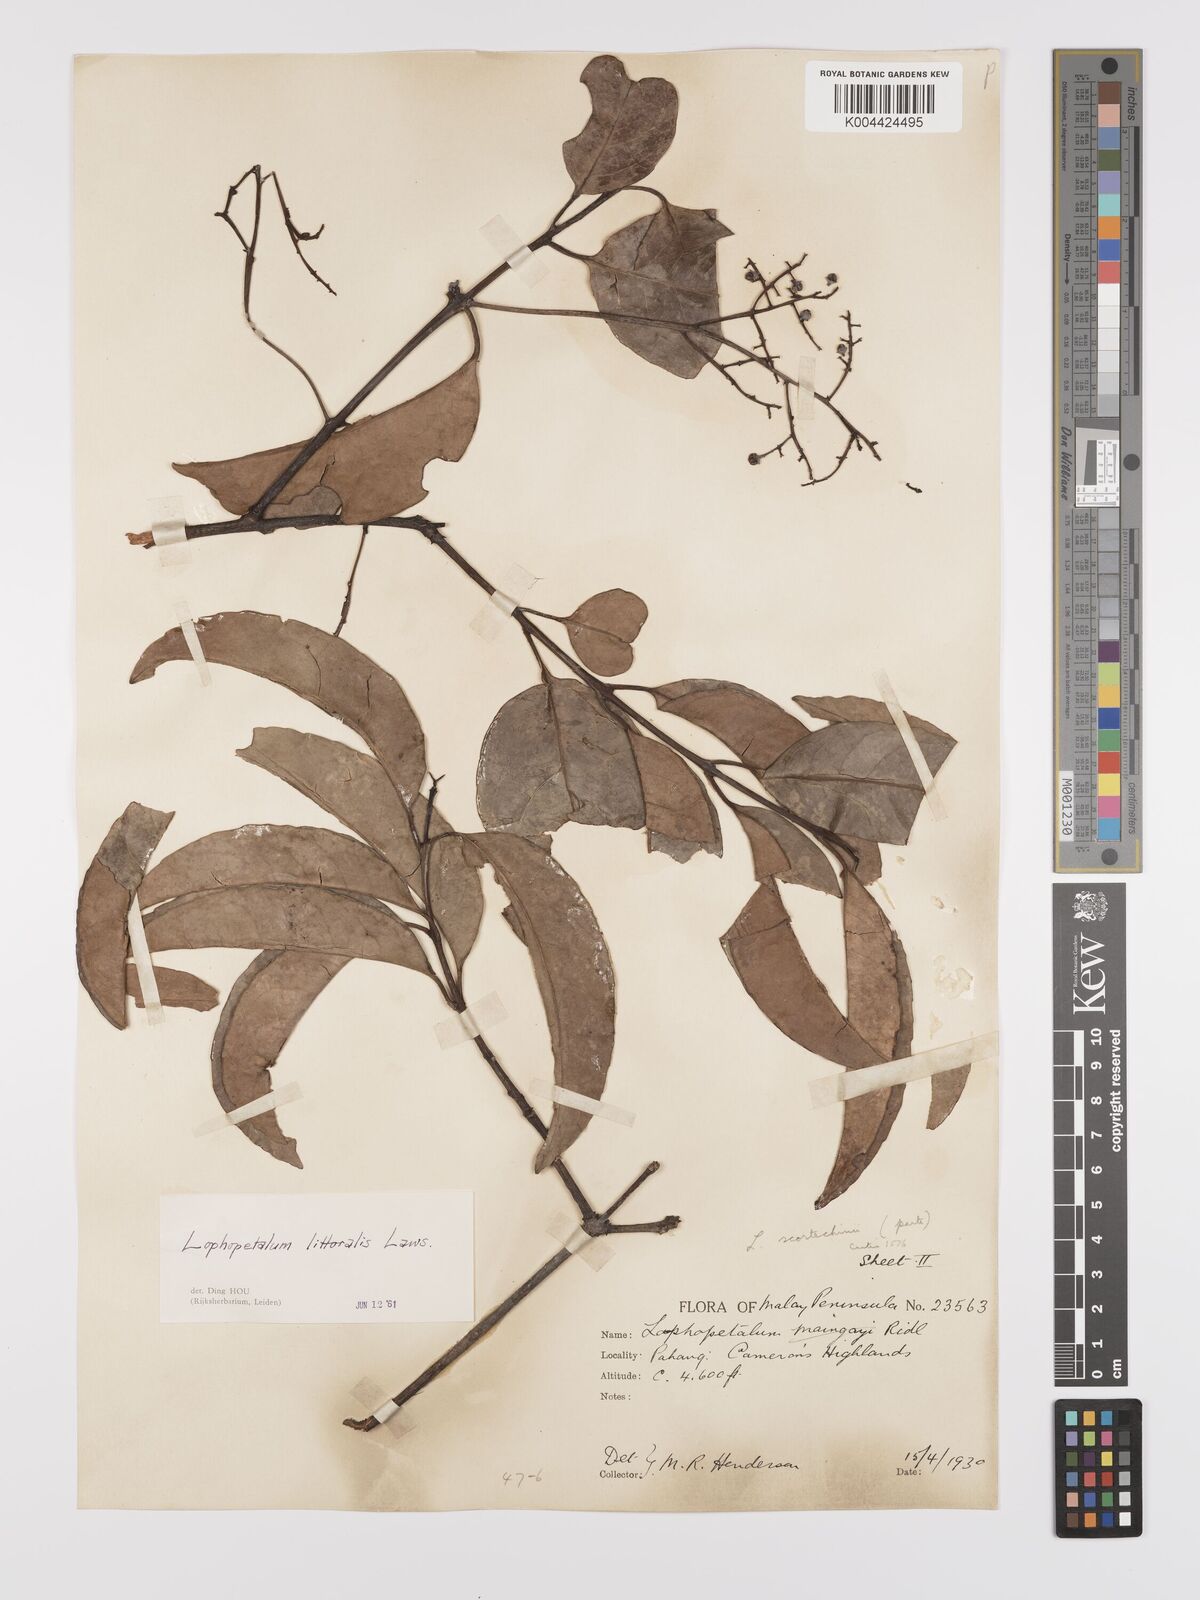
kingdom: Plantae
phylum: Tracheophyta
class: Magnoliopsida
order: Celastrales
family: Celastraceae
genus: Kokoona
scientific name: Kokoona littoralis
